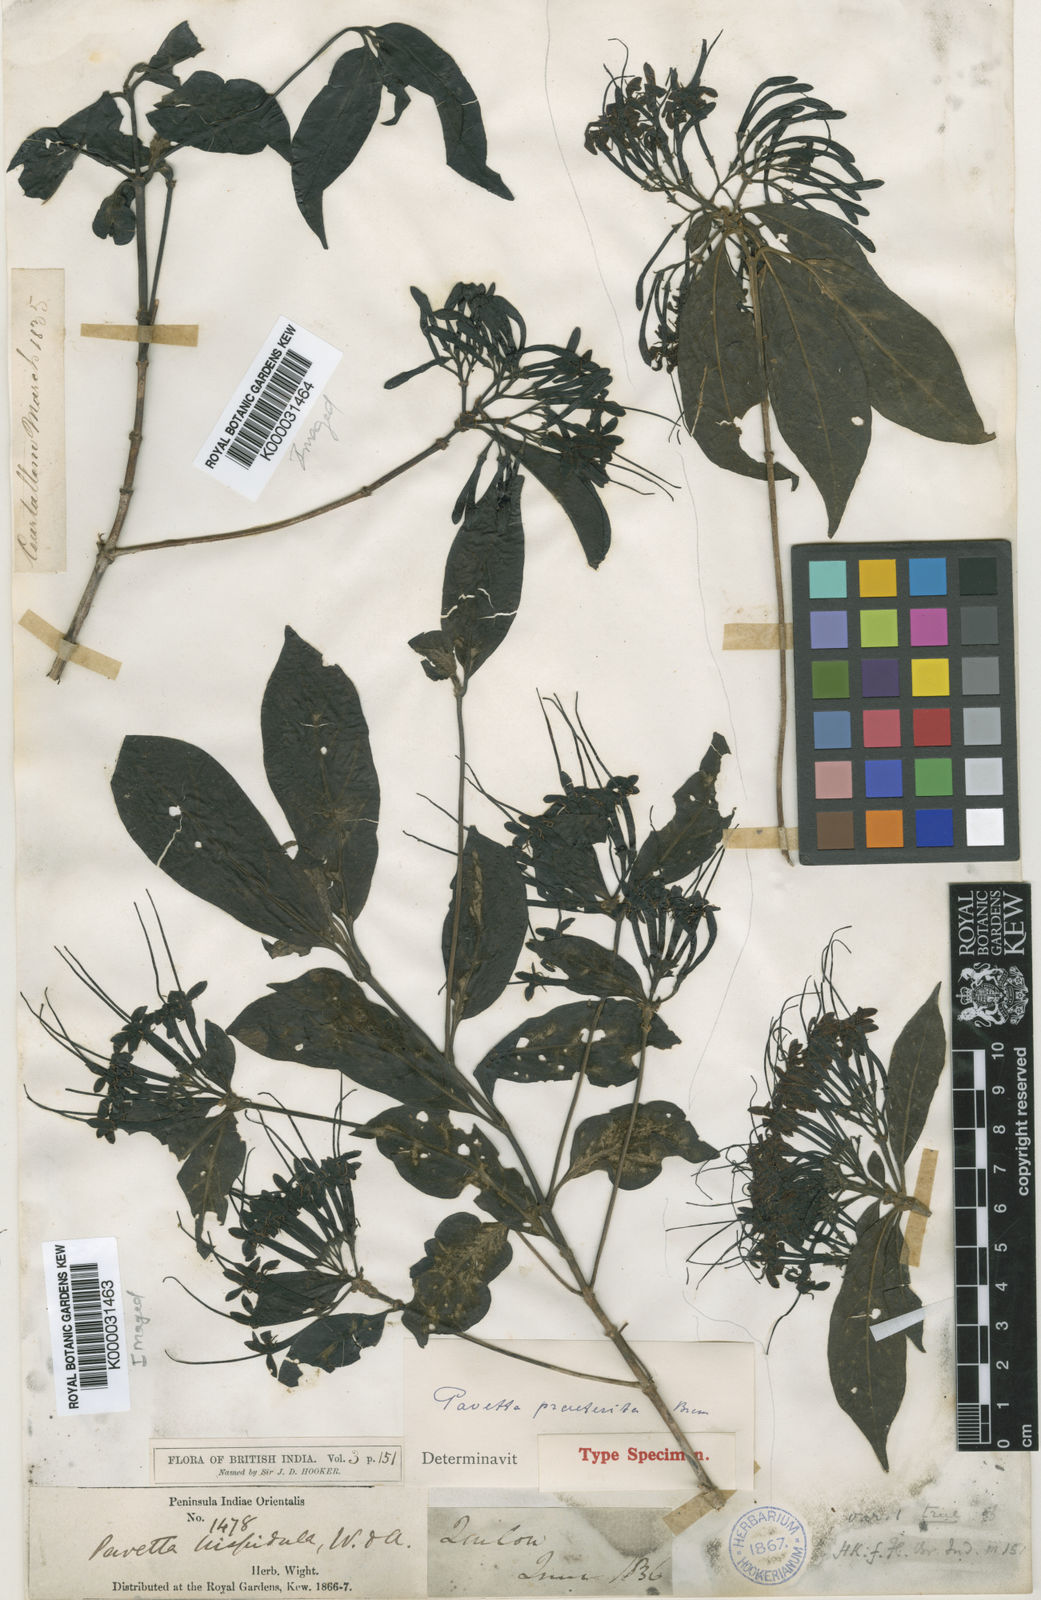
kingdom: Plantae
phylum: Tracheophyta
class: Magnoliopsida
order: Gentianales
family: Rubiaceae
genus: Pavetta
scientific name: Pavetta praeterita
